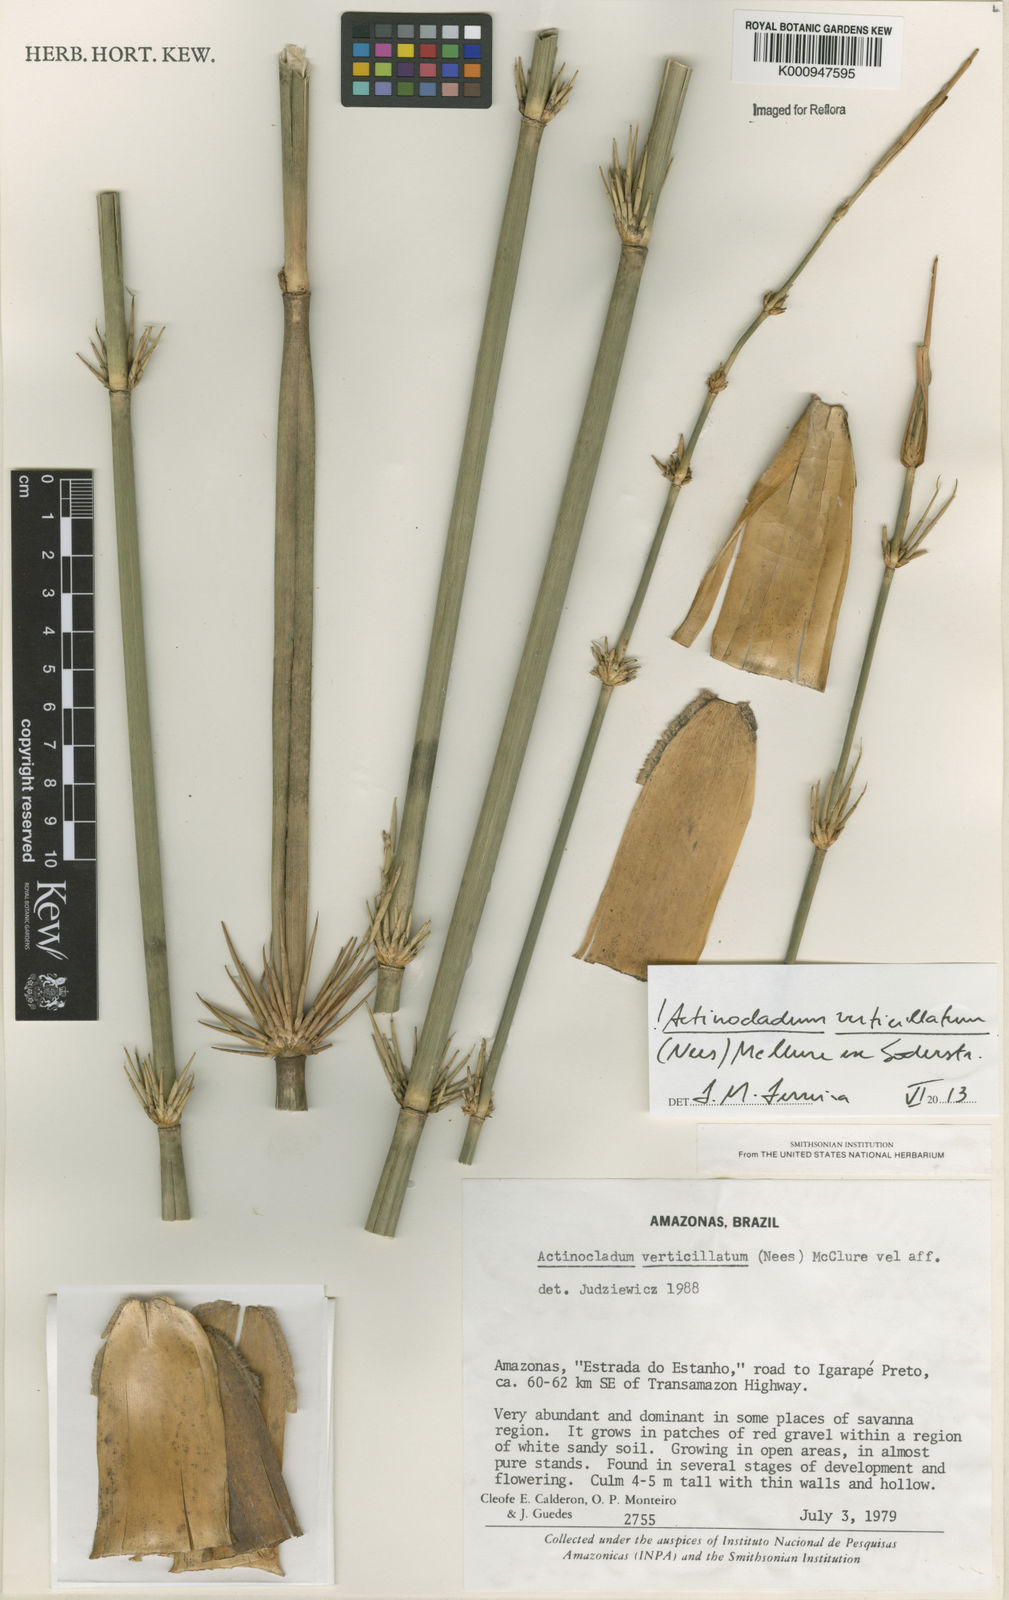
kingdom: Plantae
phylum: Tracheophyta
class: Liliopsida
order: Poales
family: Poaceae
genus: Actinocladum
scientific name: Actinocladum verticillatum
